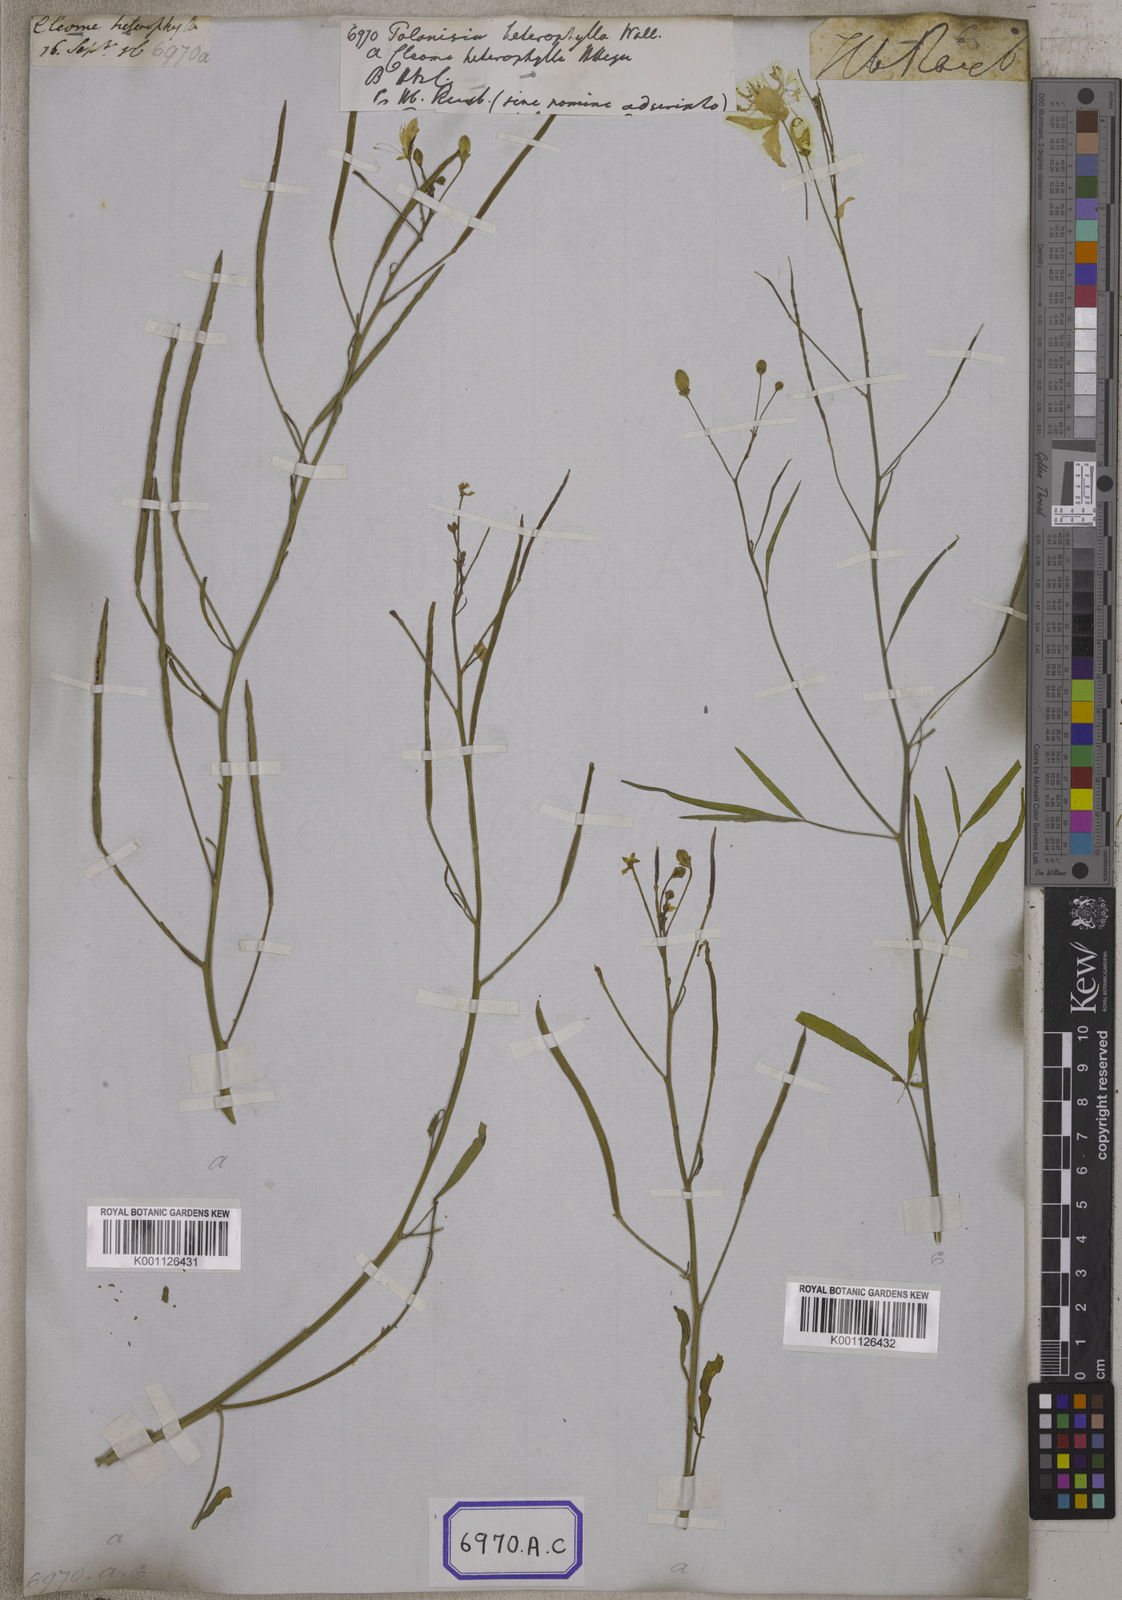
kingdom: Plantae
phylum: Tracheophyta
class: Magnoliopsida
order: Brassicales
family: Cleomaceae
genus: Corynandra
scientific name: Corynandra chelidonii
